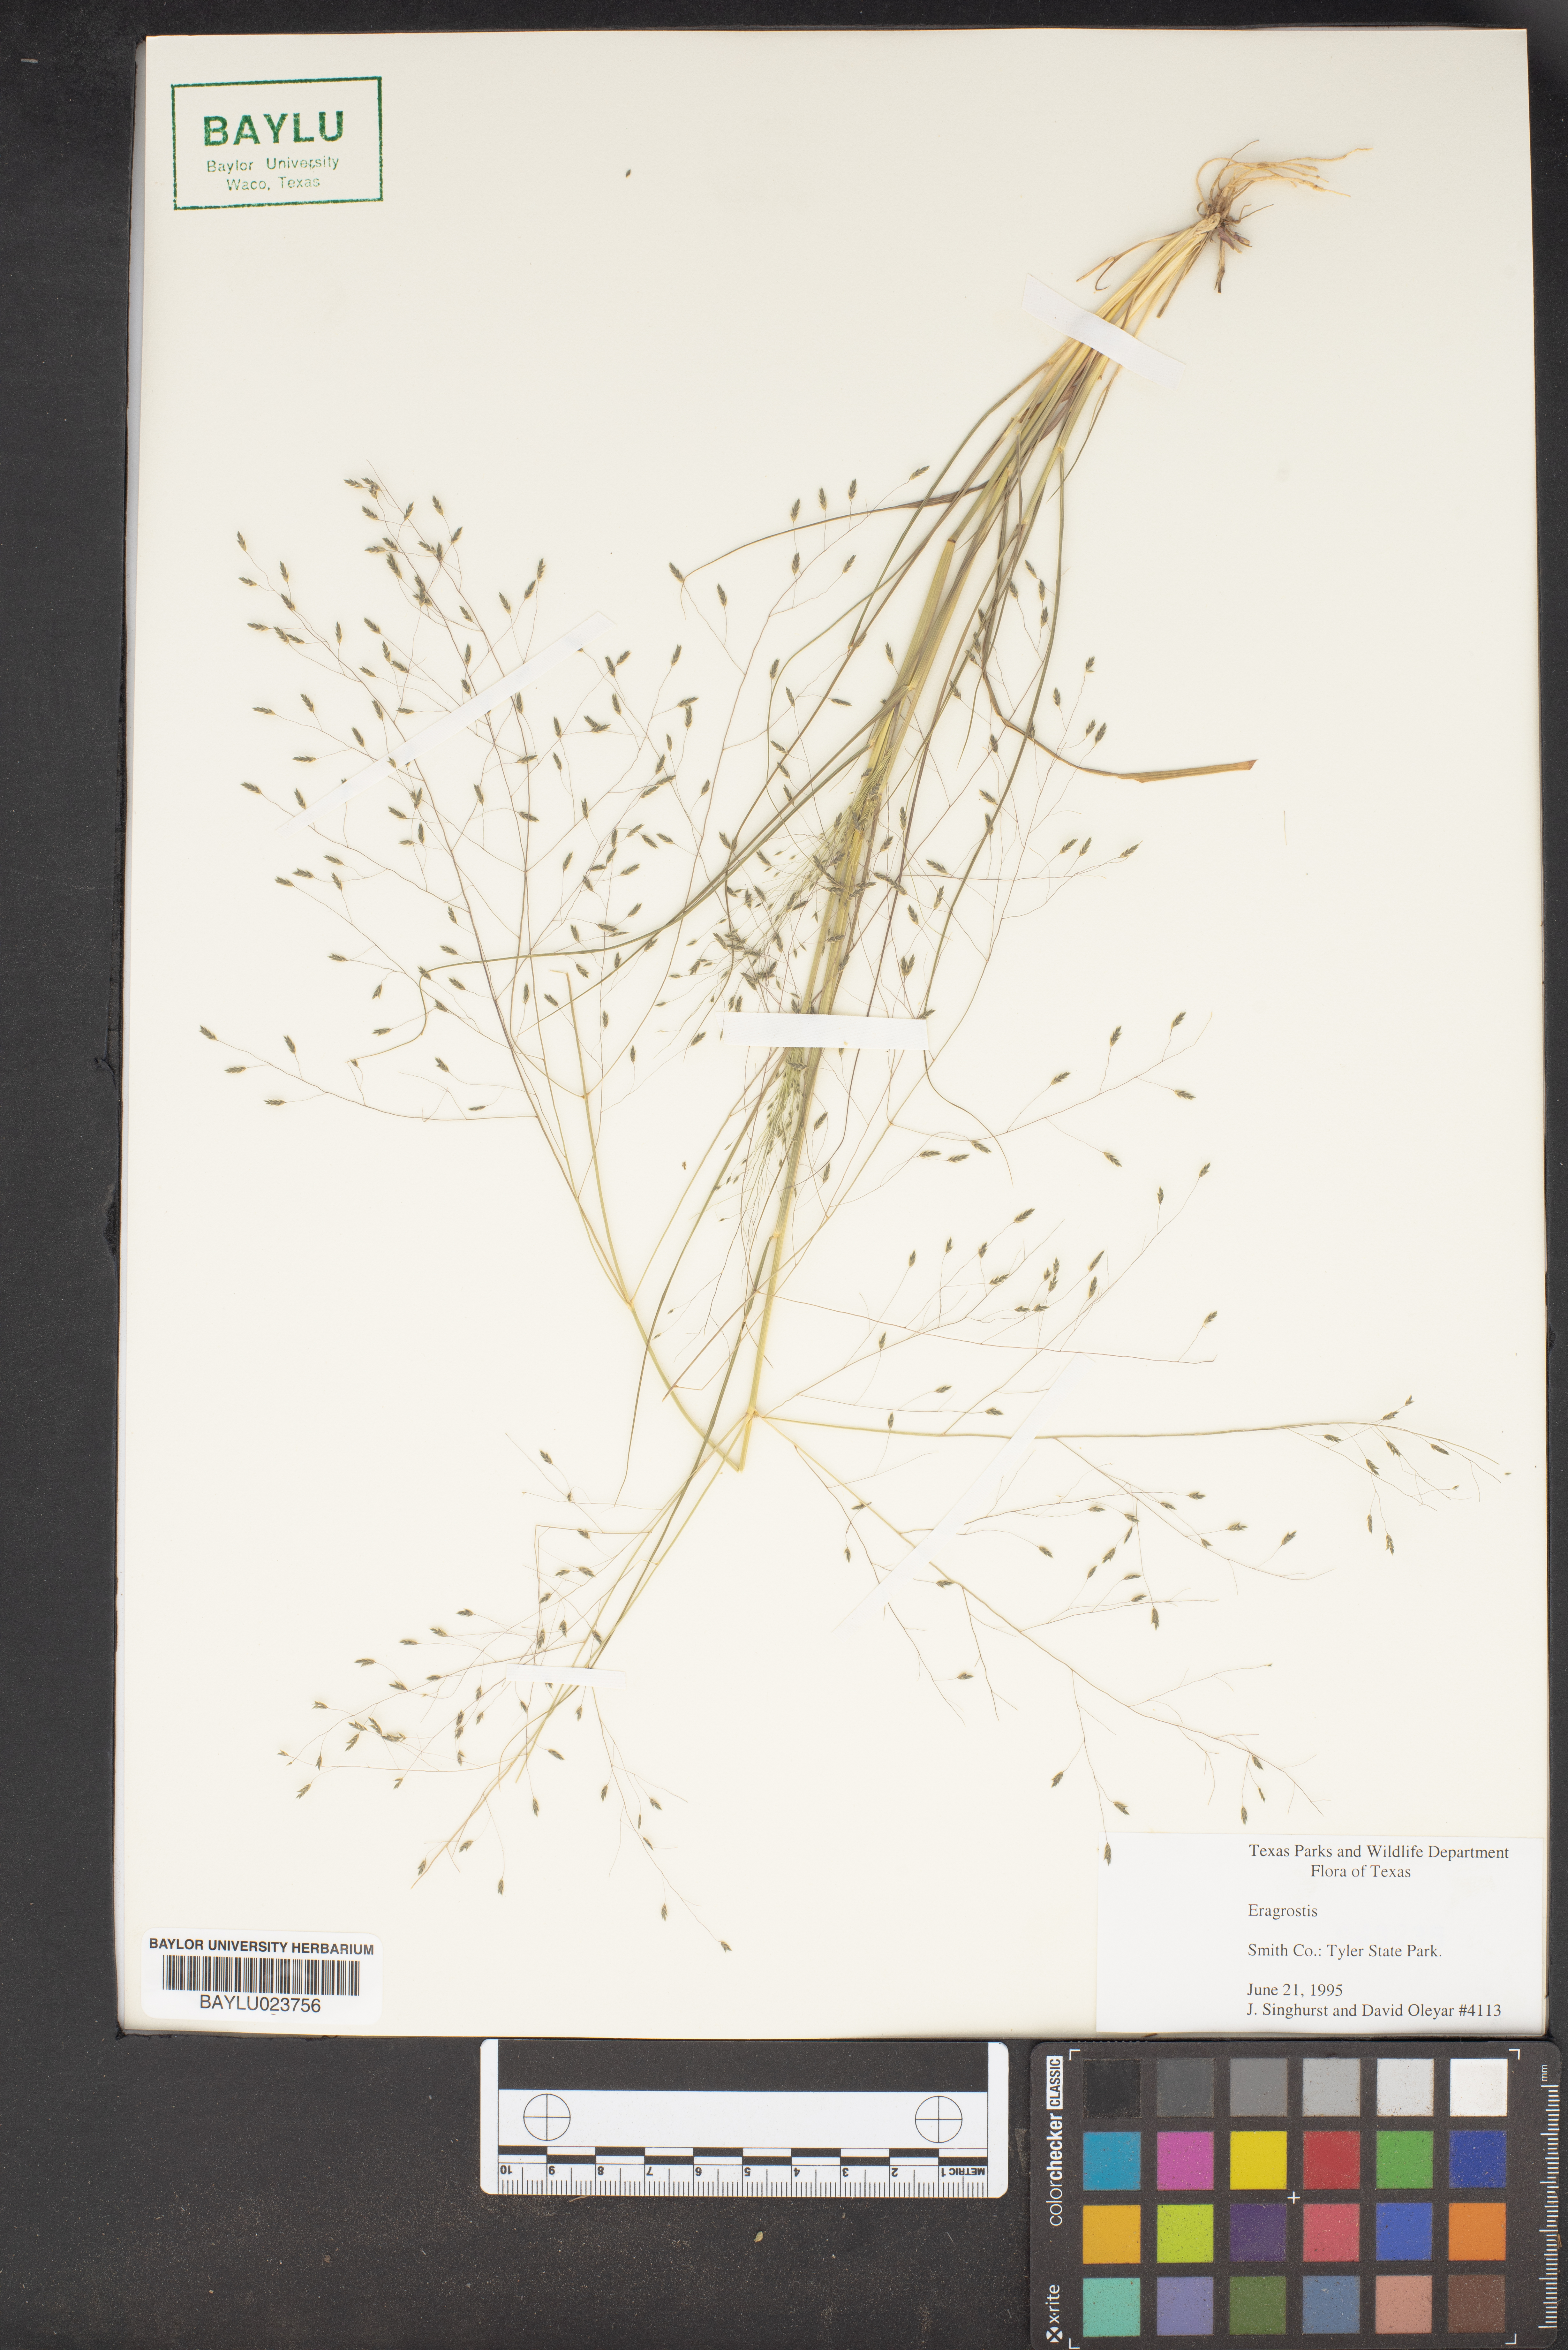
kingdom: Plantae
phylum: Tracheophyta
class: Liliopsida
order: Poales
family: Poaceae
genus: Eragrostis
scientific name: Eragrostis
